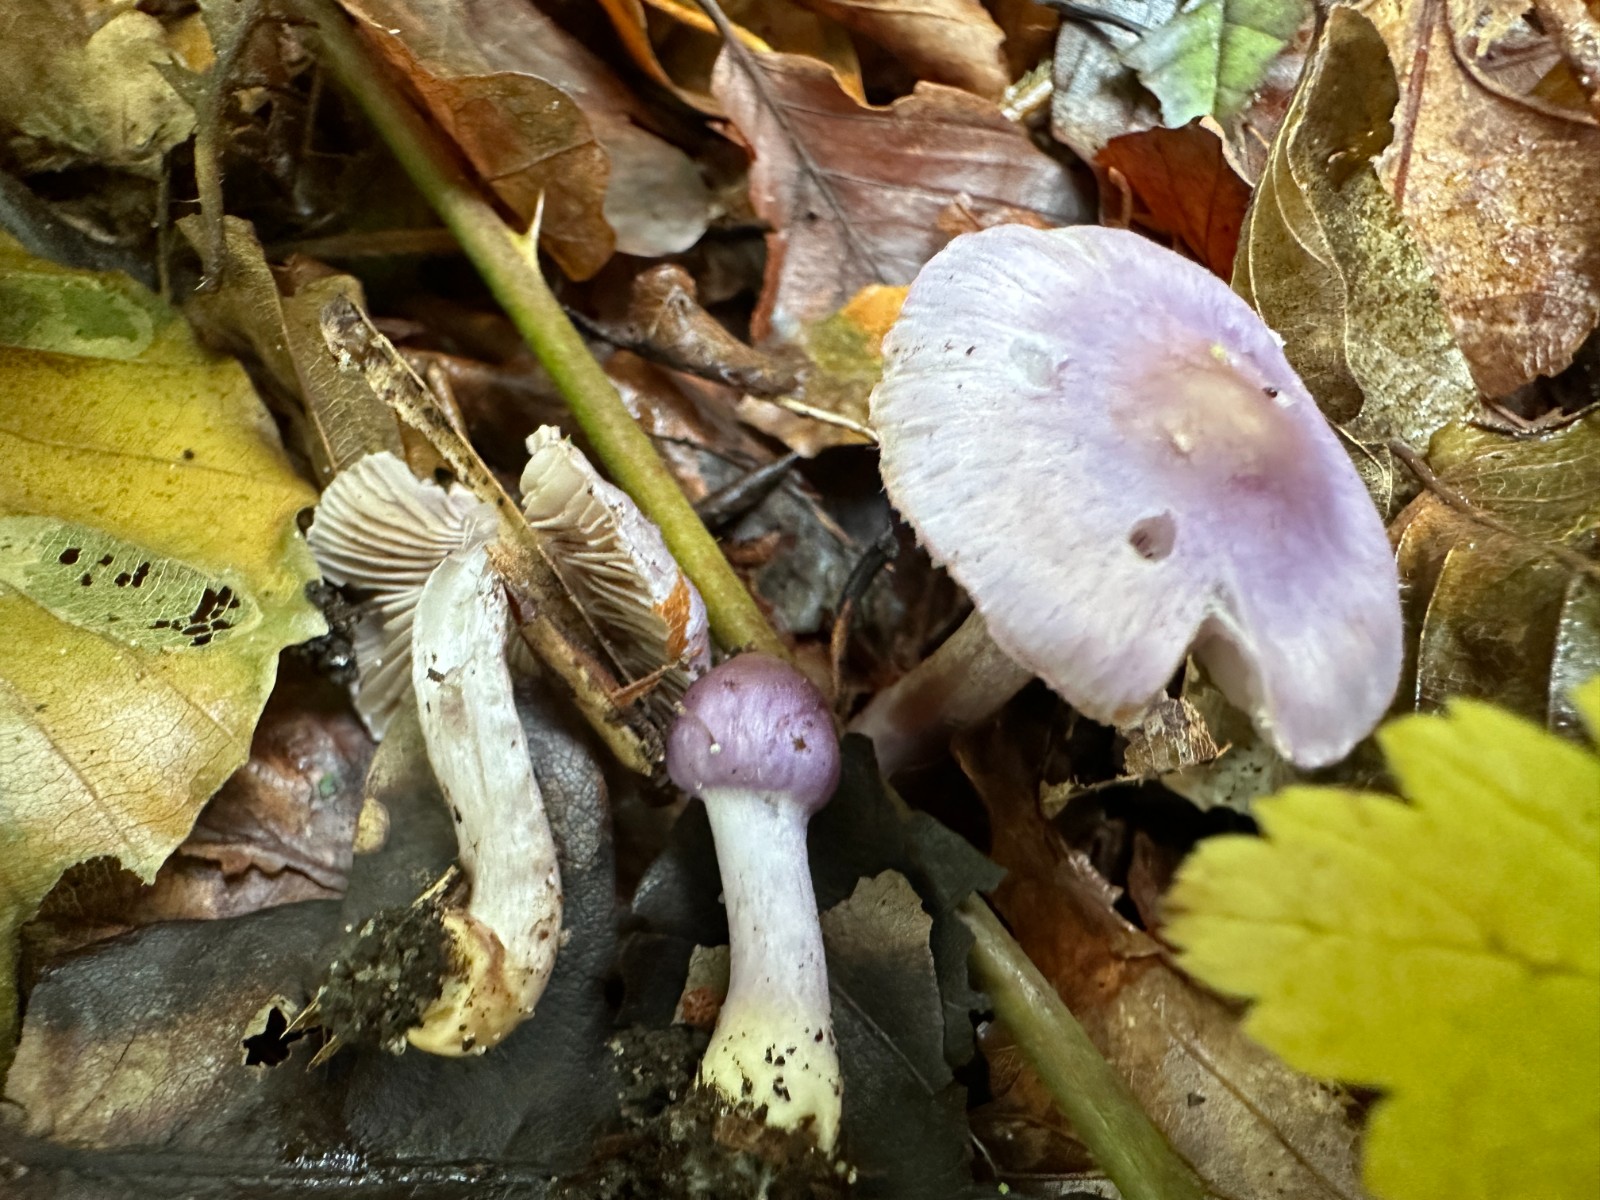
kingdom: Fungi
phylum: Basidiomycota
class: Agaricomycetes
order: Agaricales
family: Inocybaceae
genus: Inocybe
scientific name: Inocybe geophylla
